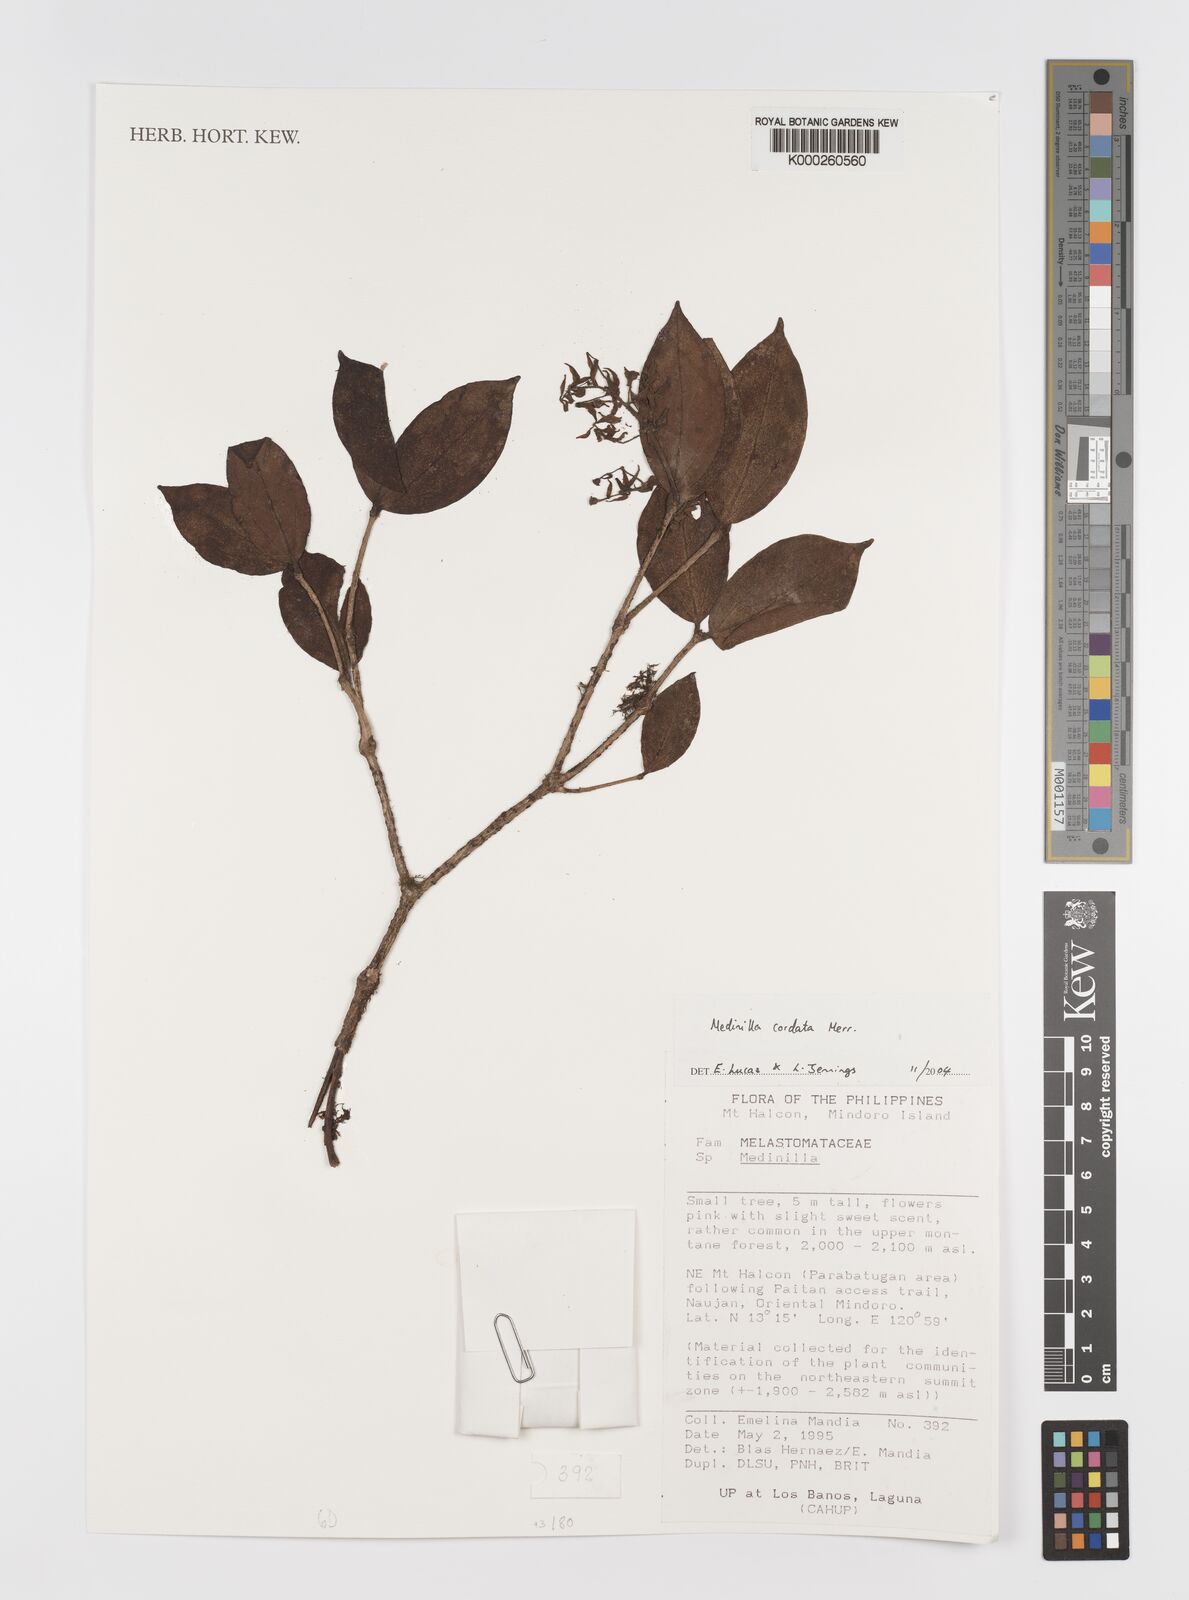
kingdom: Plantae
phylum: Tracheophyta
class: Magnoliopsida
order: Myrtales
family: Melastomataceae
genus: Medinilla
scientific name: Medinilla cordata
